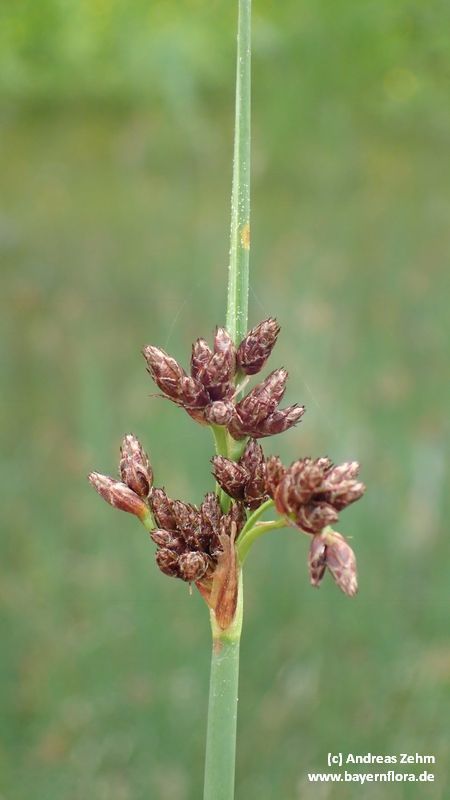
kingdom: Plantae
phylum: Tracheophyta
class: Liliopsida
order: Poales
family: Cyperaceae
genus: Schoenoplectus
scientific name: Schoenoplectus tabernaemontani
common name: Grey club-rush
